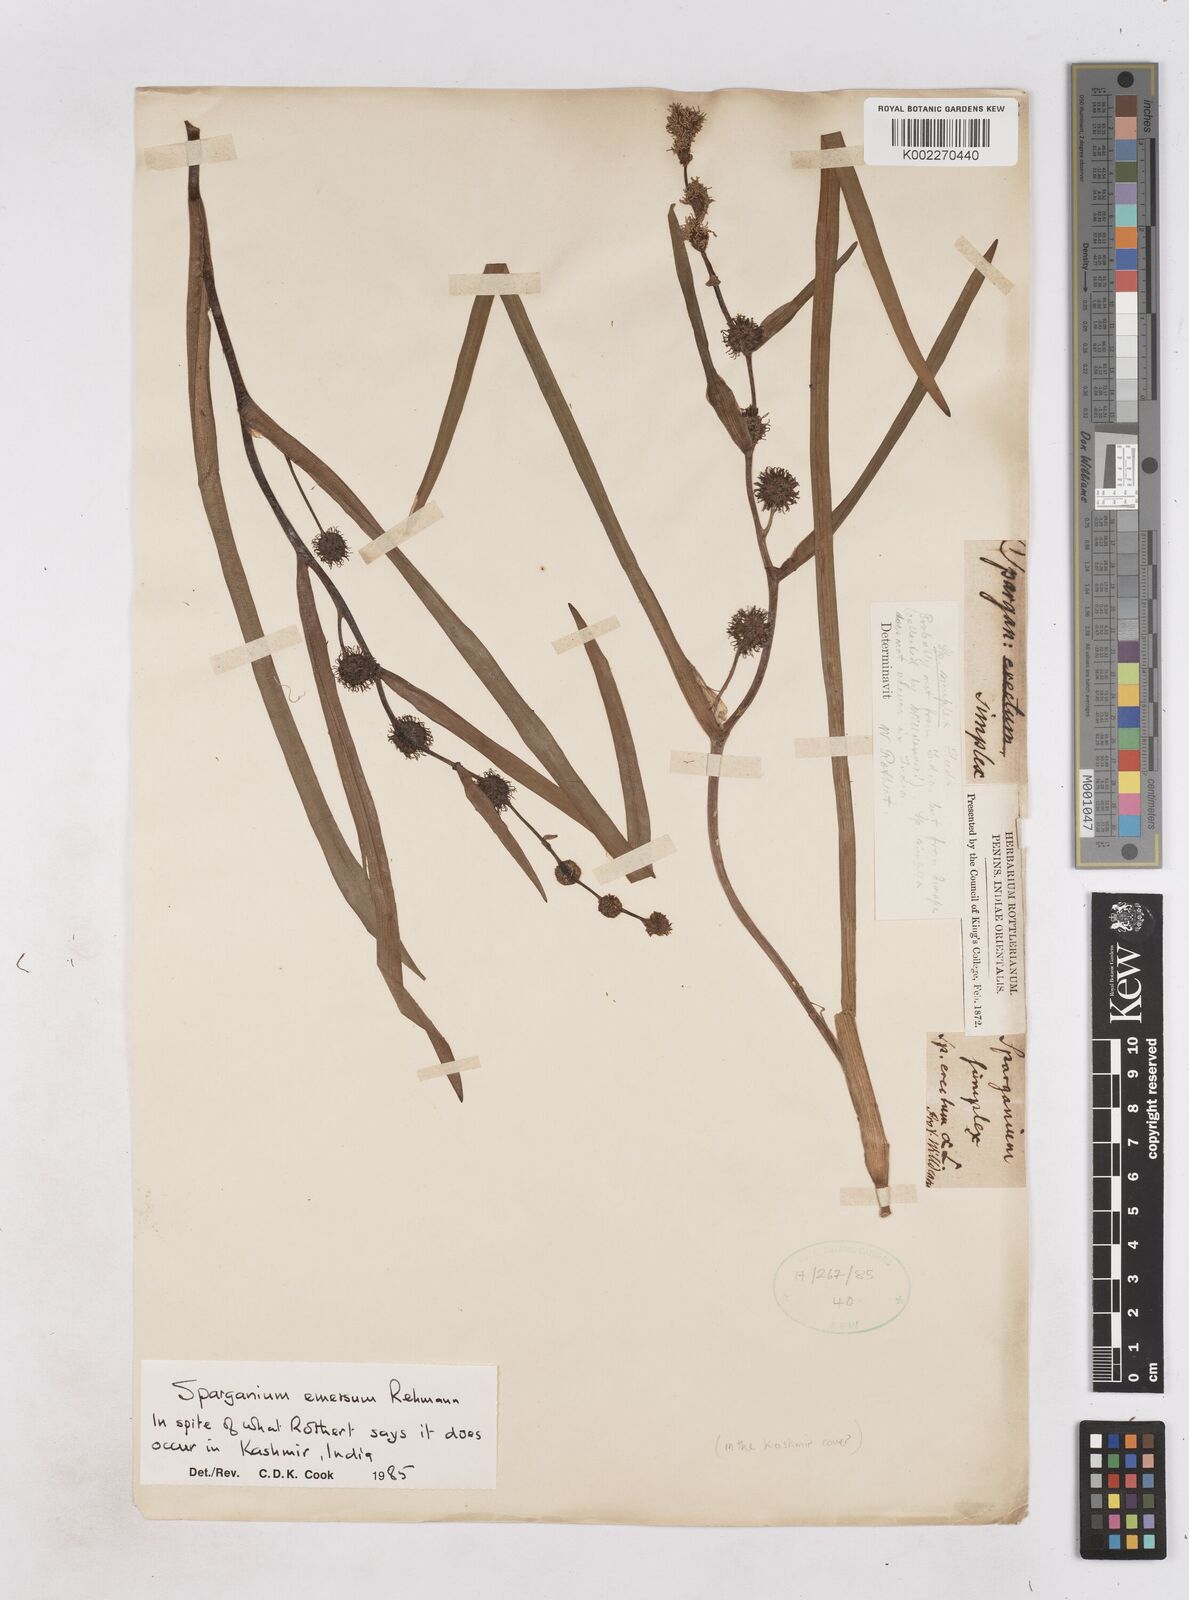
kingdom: Plantae
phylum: Tracheophyta
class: Liliopsida
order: Poales
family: Typhaceae
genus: Sparganium
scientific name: Sparganium emersum
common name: Unbranched bur-reed
